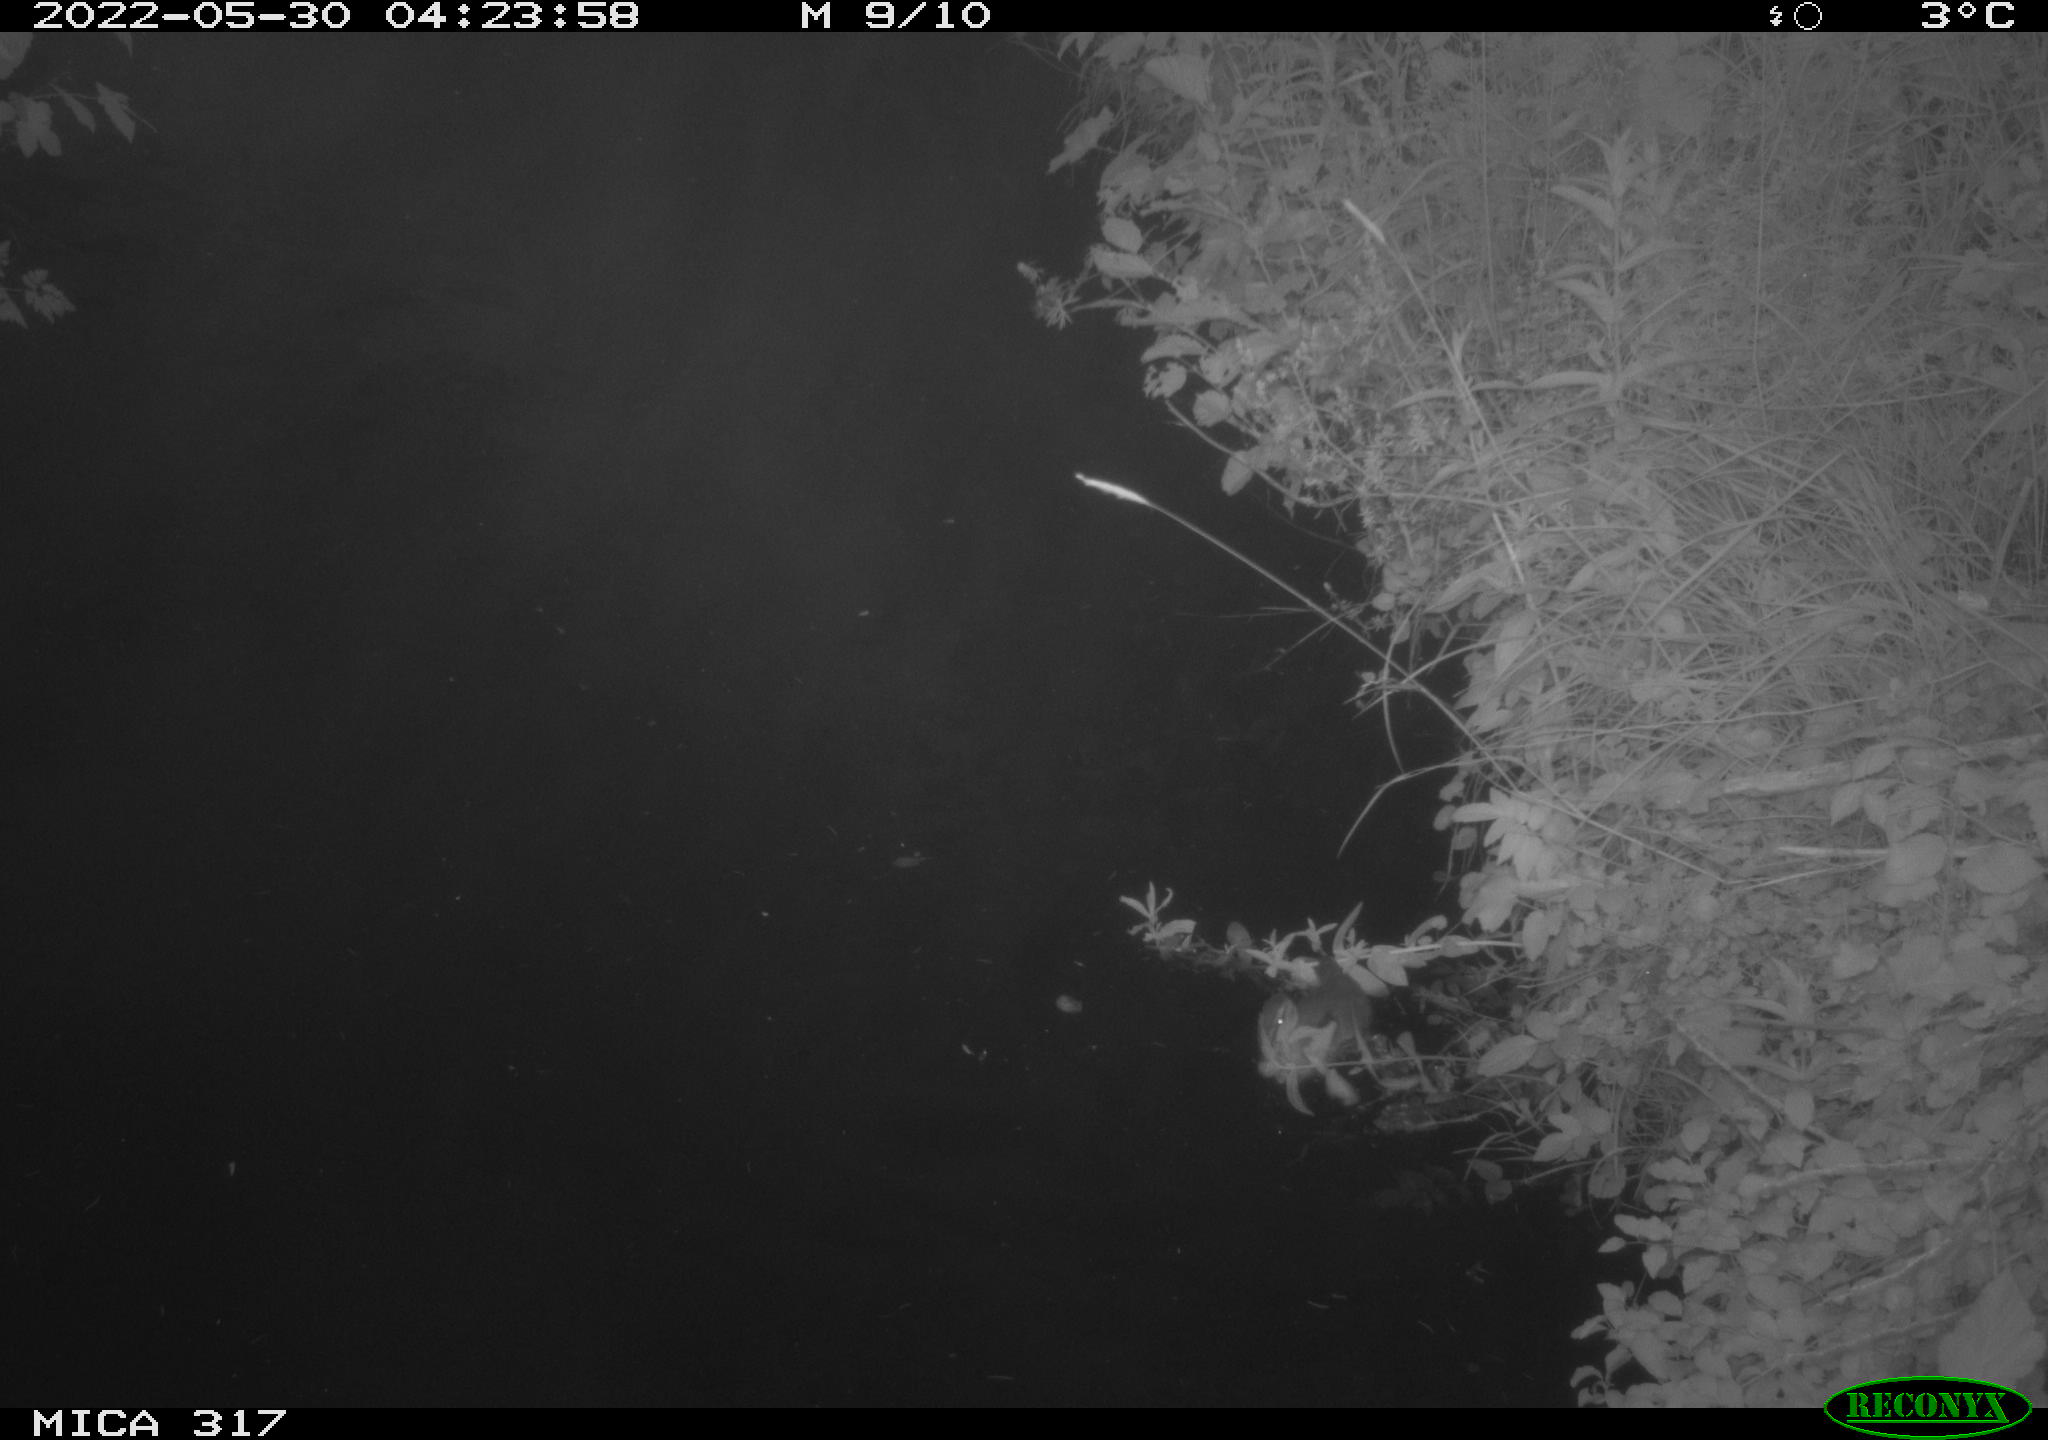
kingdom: Animalia
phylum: Chordata
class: Aves
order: Gruiformes
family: Rallidae
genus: Fulica
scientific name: Fulica atra
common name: Eurasian coot
